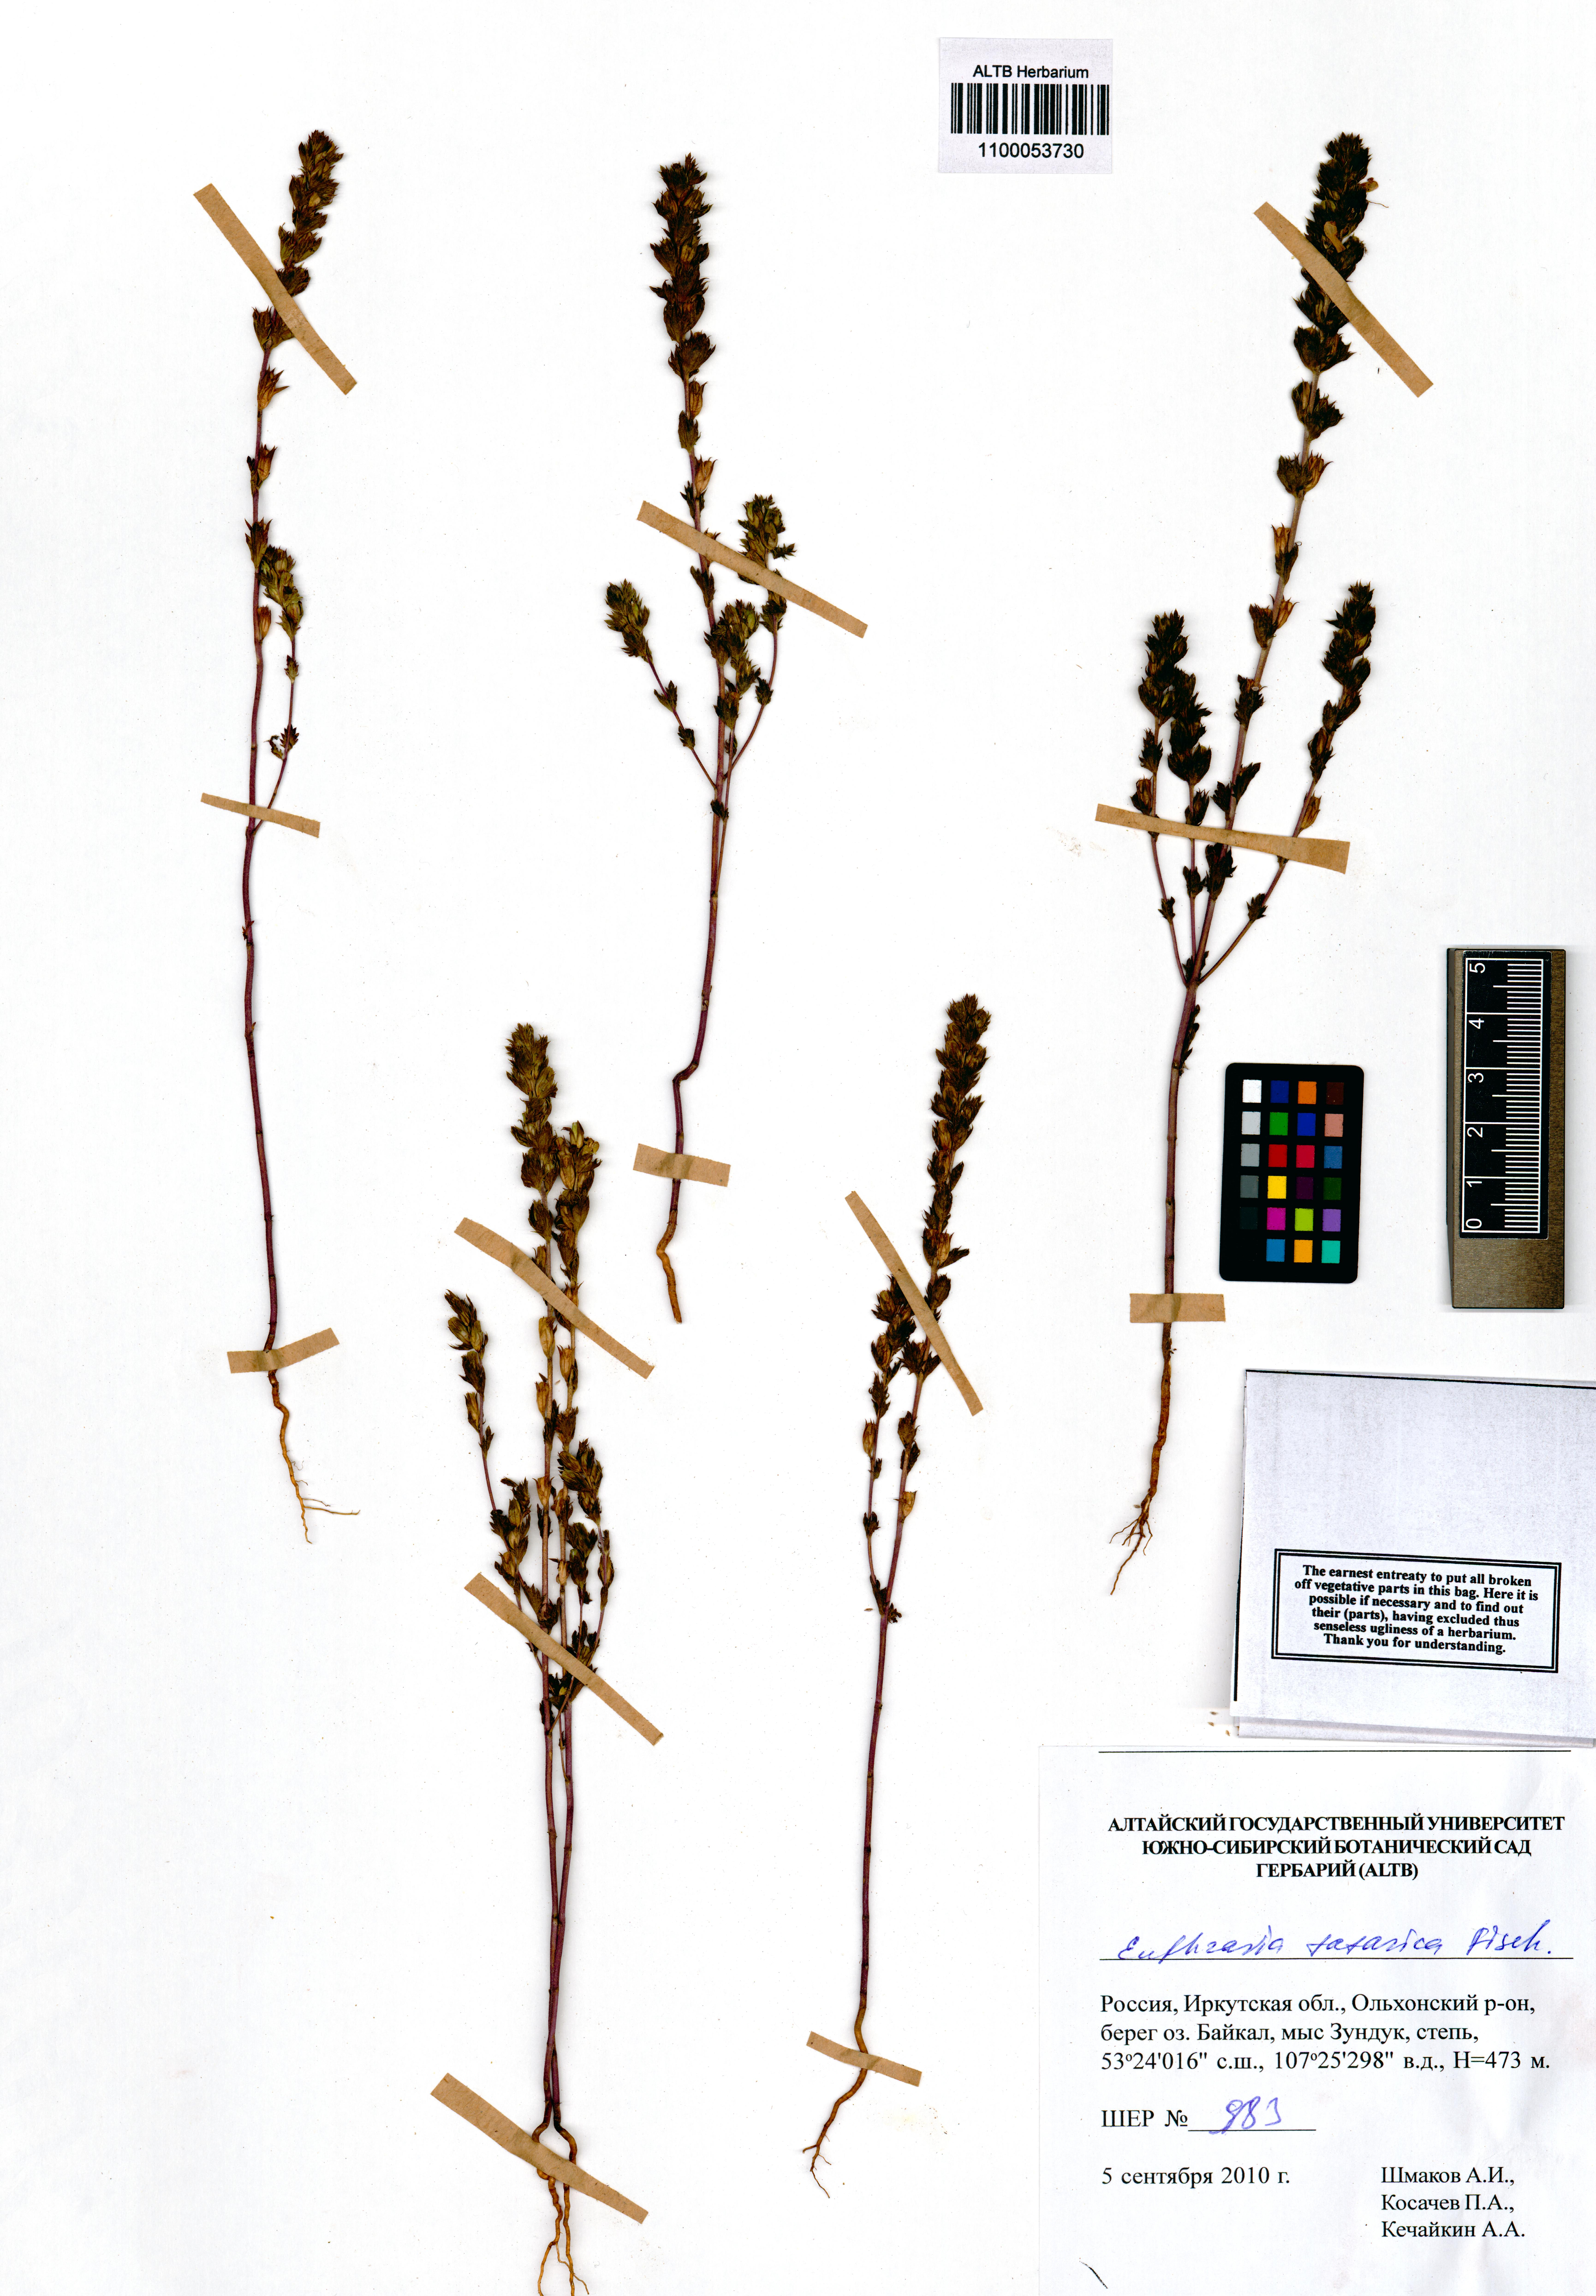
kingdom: Plantae
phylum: Tracheophyta
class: Magnoliopsida
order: Lamiales
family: Orobanchaceae
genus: Euphrasia
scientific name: Euphrasia pectinata
